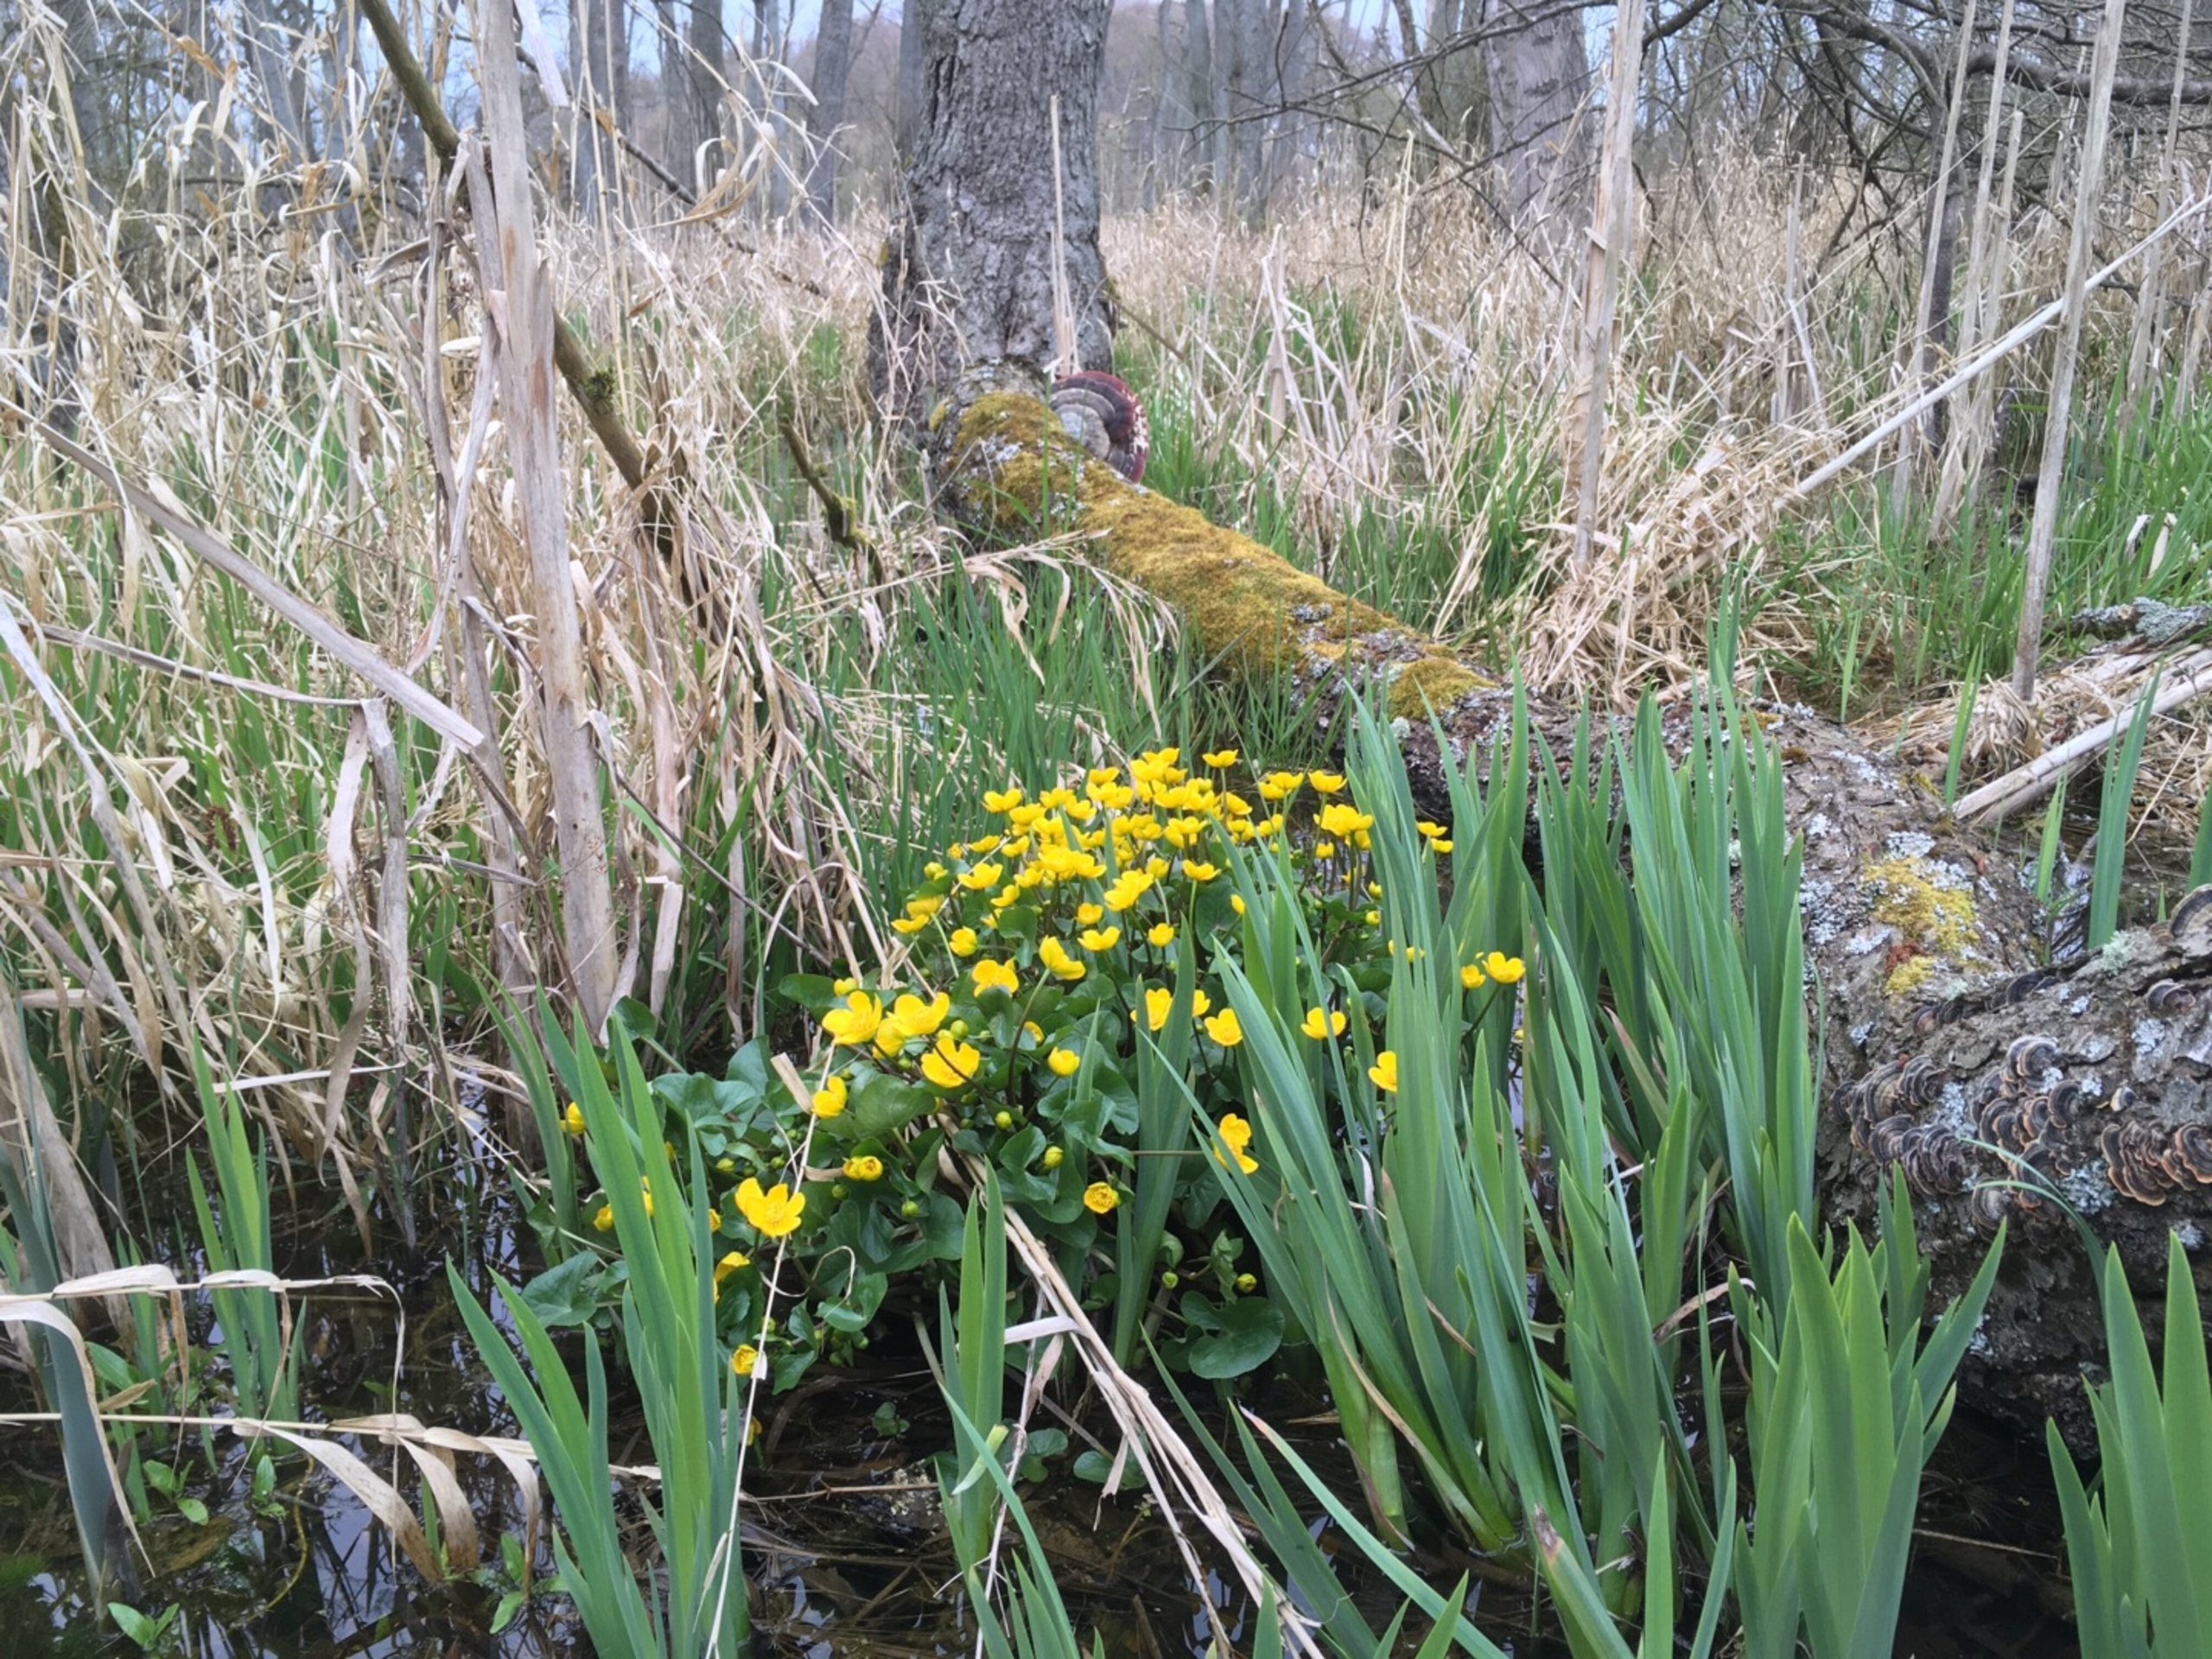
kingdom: Plantae
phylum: Tracheophyta
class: Magnoliopsida
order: Ranunculales
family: Ranunculaceae
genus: Caltha
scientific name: Caltha palustris
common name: Eng-kabbeleje
